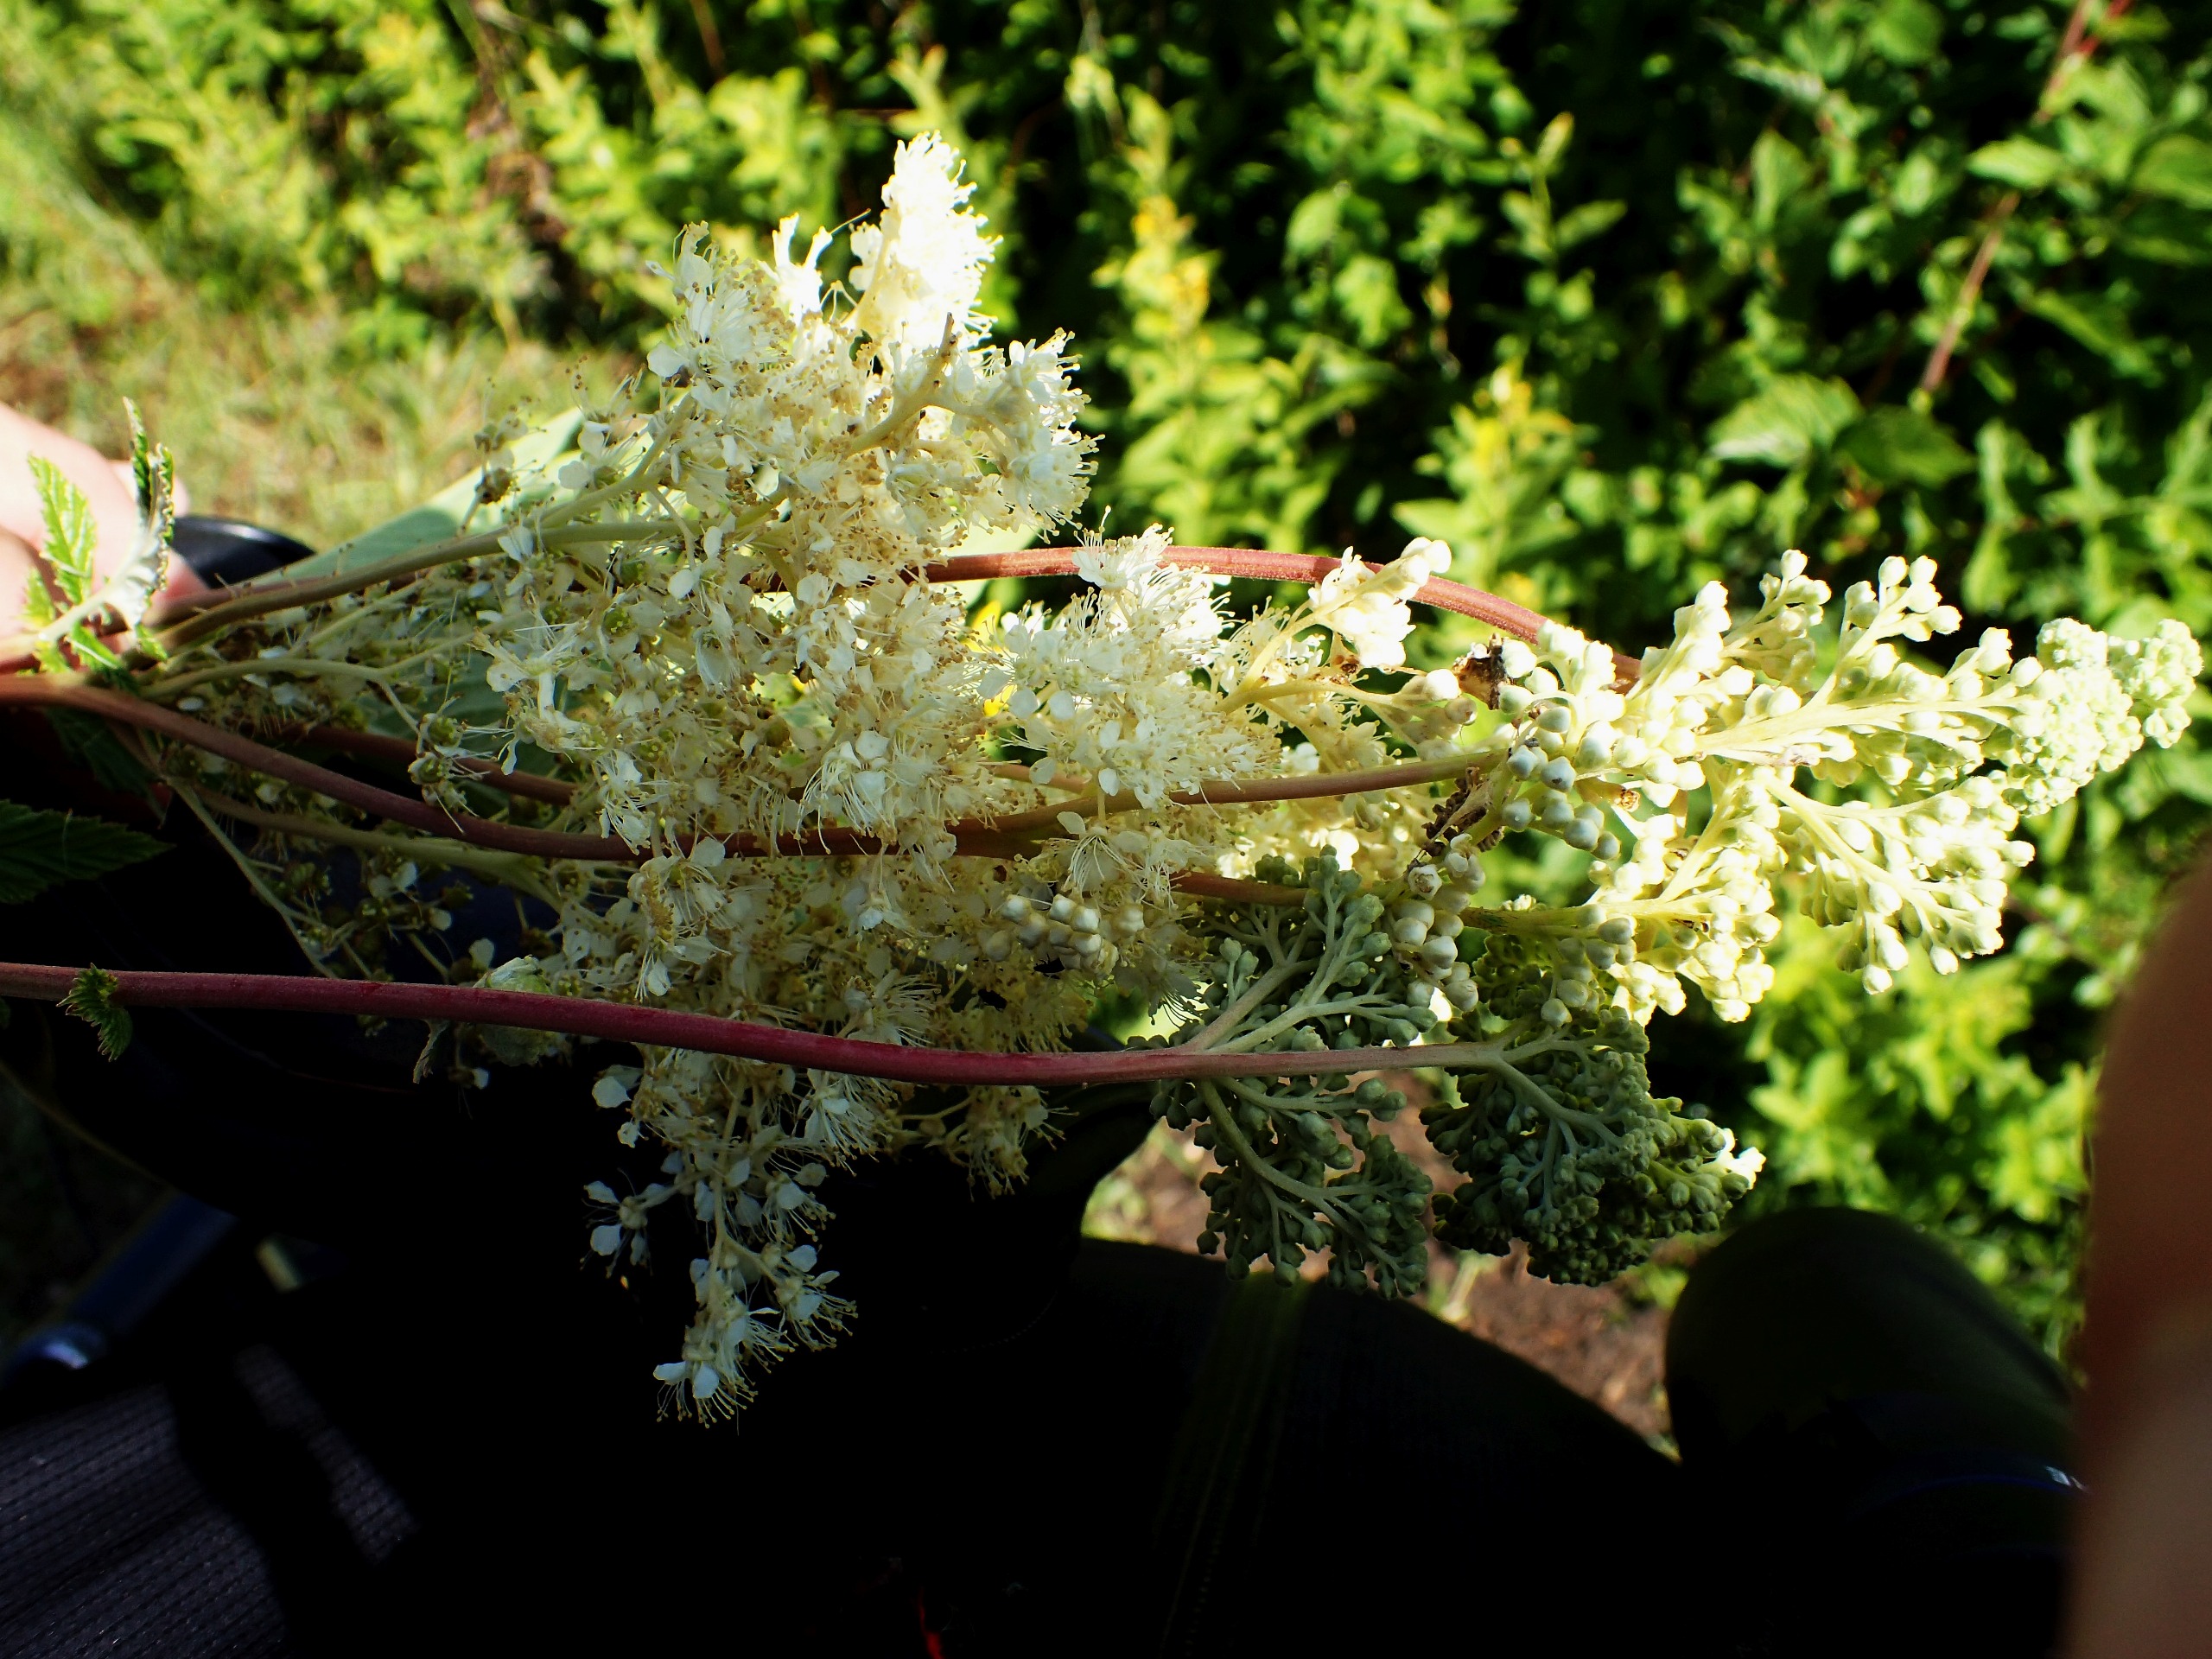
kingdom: Plantae
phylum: Tracheophyta
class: Magnoliopsida
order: Rosales
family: Rosaceae
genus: Filipendula
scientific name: Filipendula ulmaria
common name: Almindelig mjødurt
